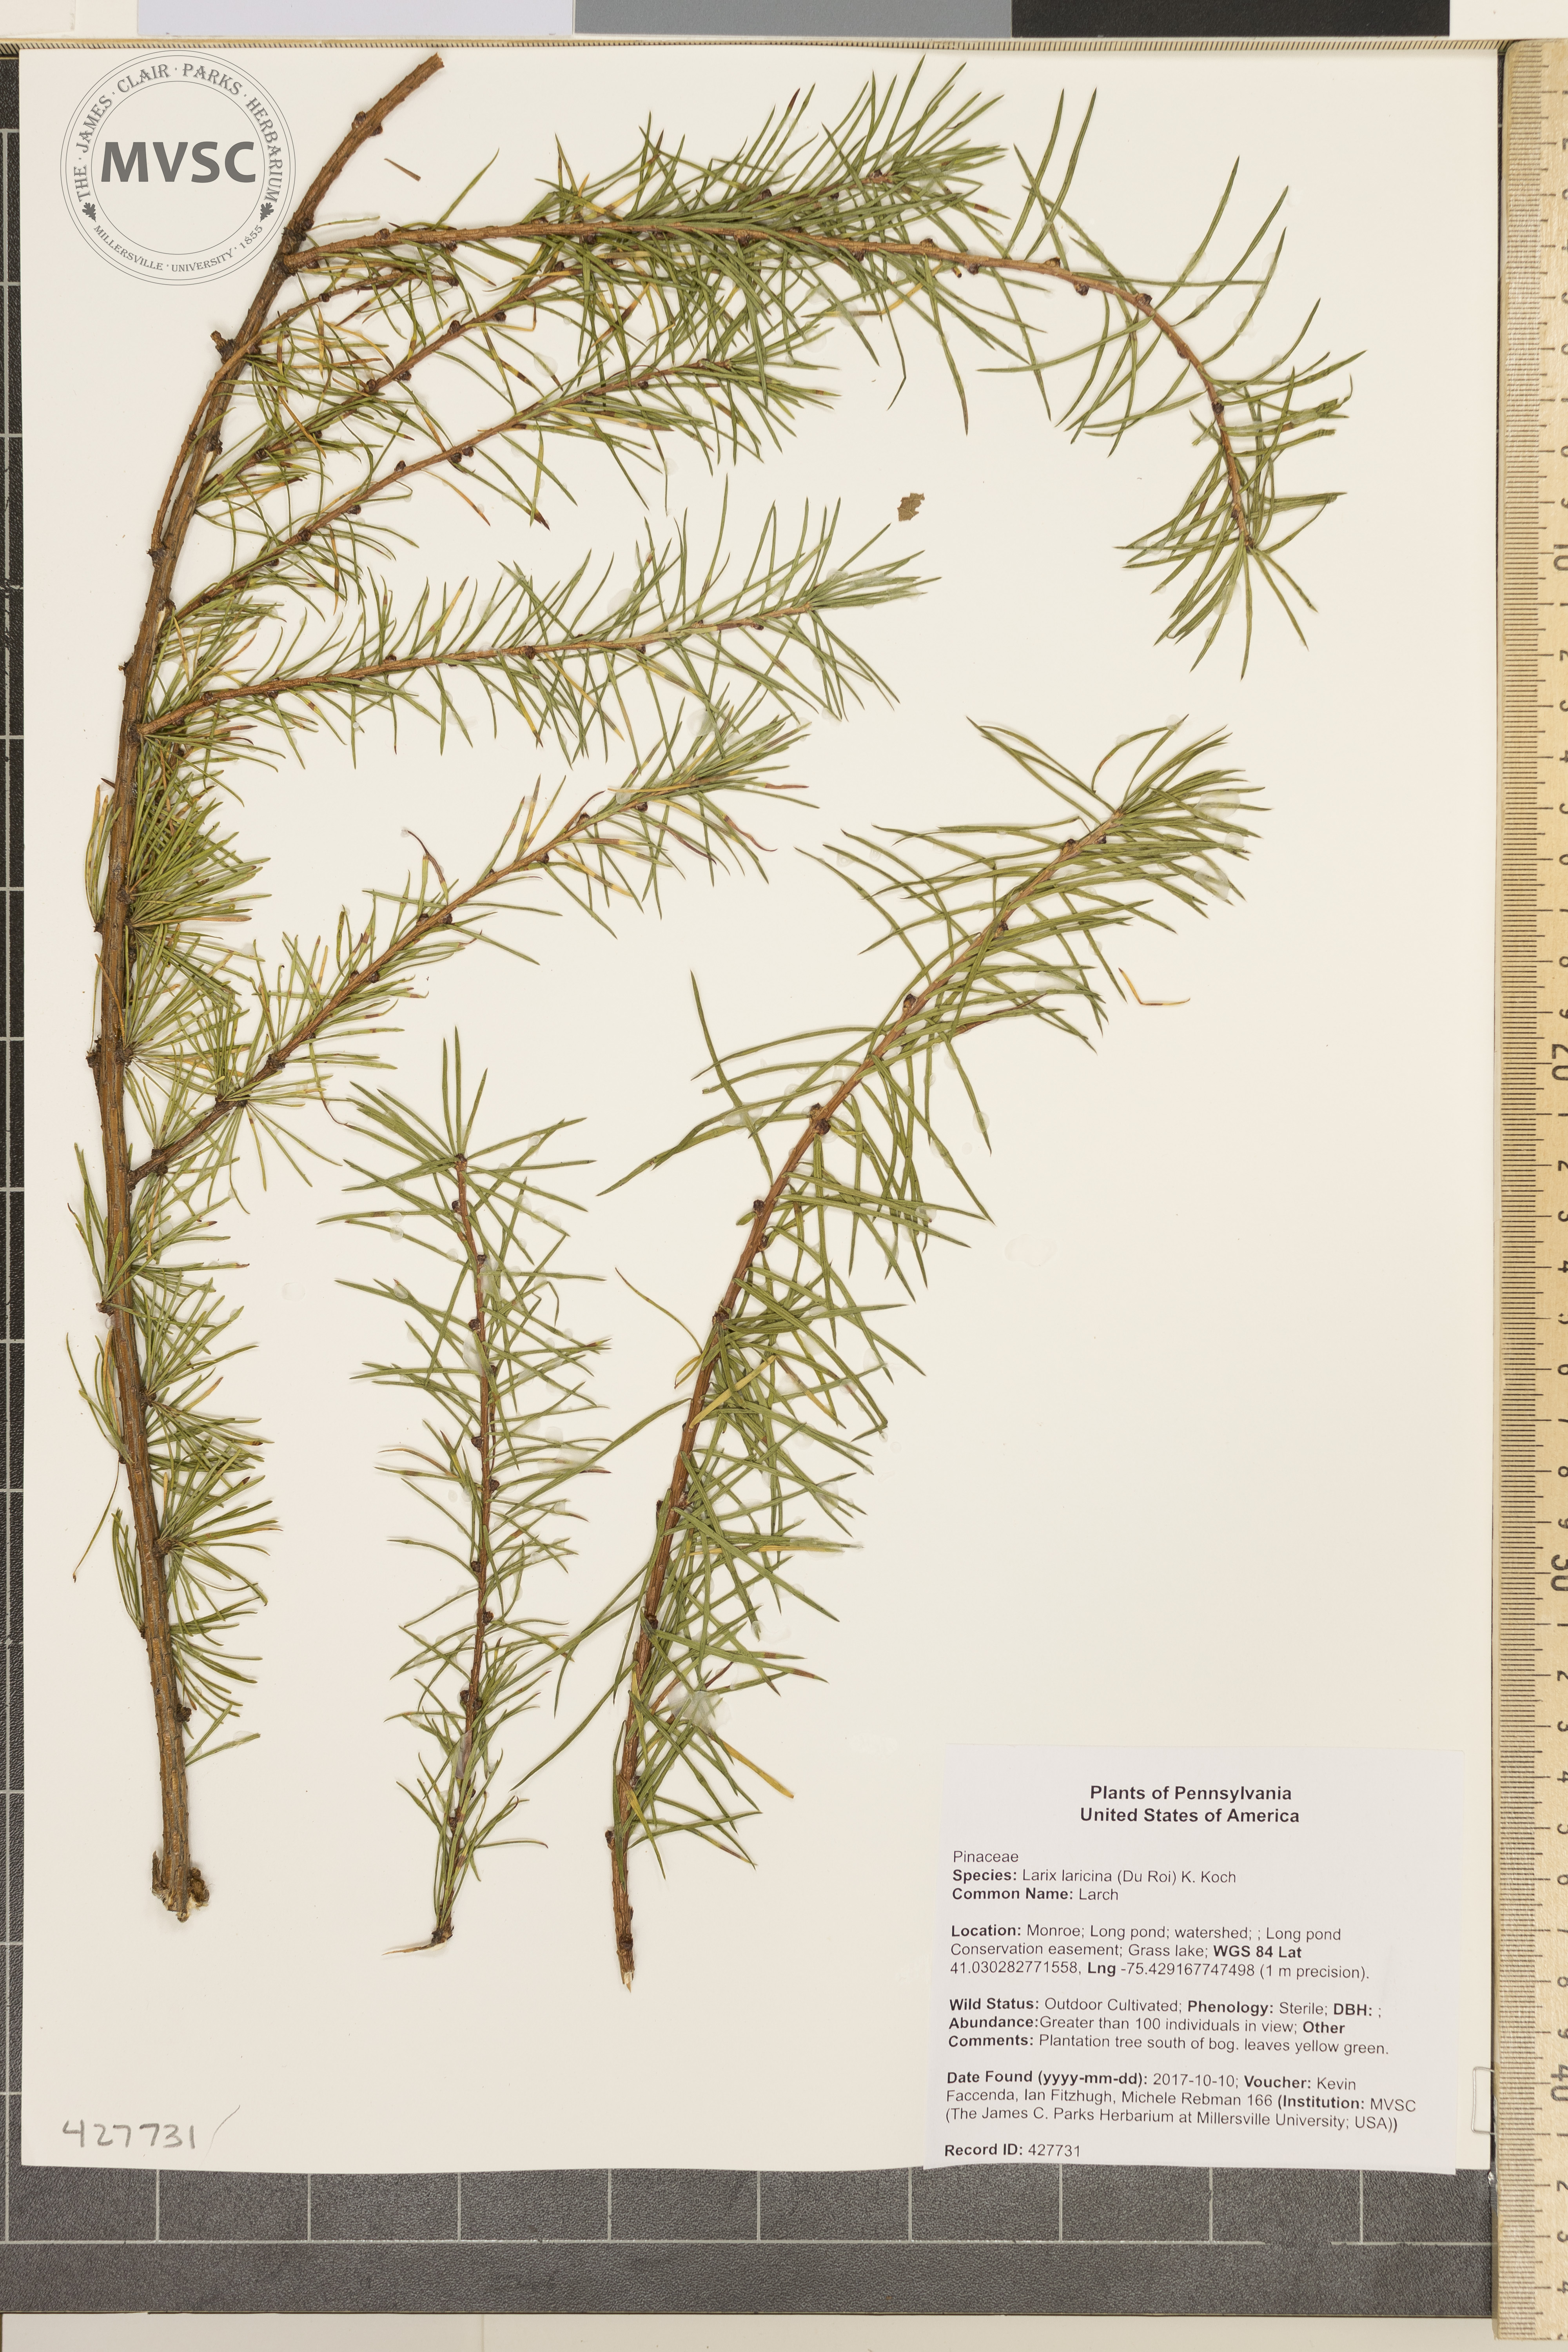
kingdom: Plantae
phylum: Tracheophyta
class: Pinopsida
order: Pinales
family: Pinaceae
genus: Larix
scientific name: Larix laricina
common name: Larch
